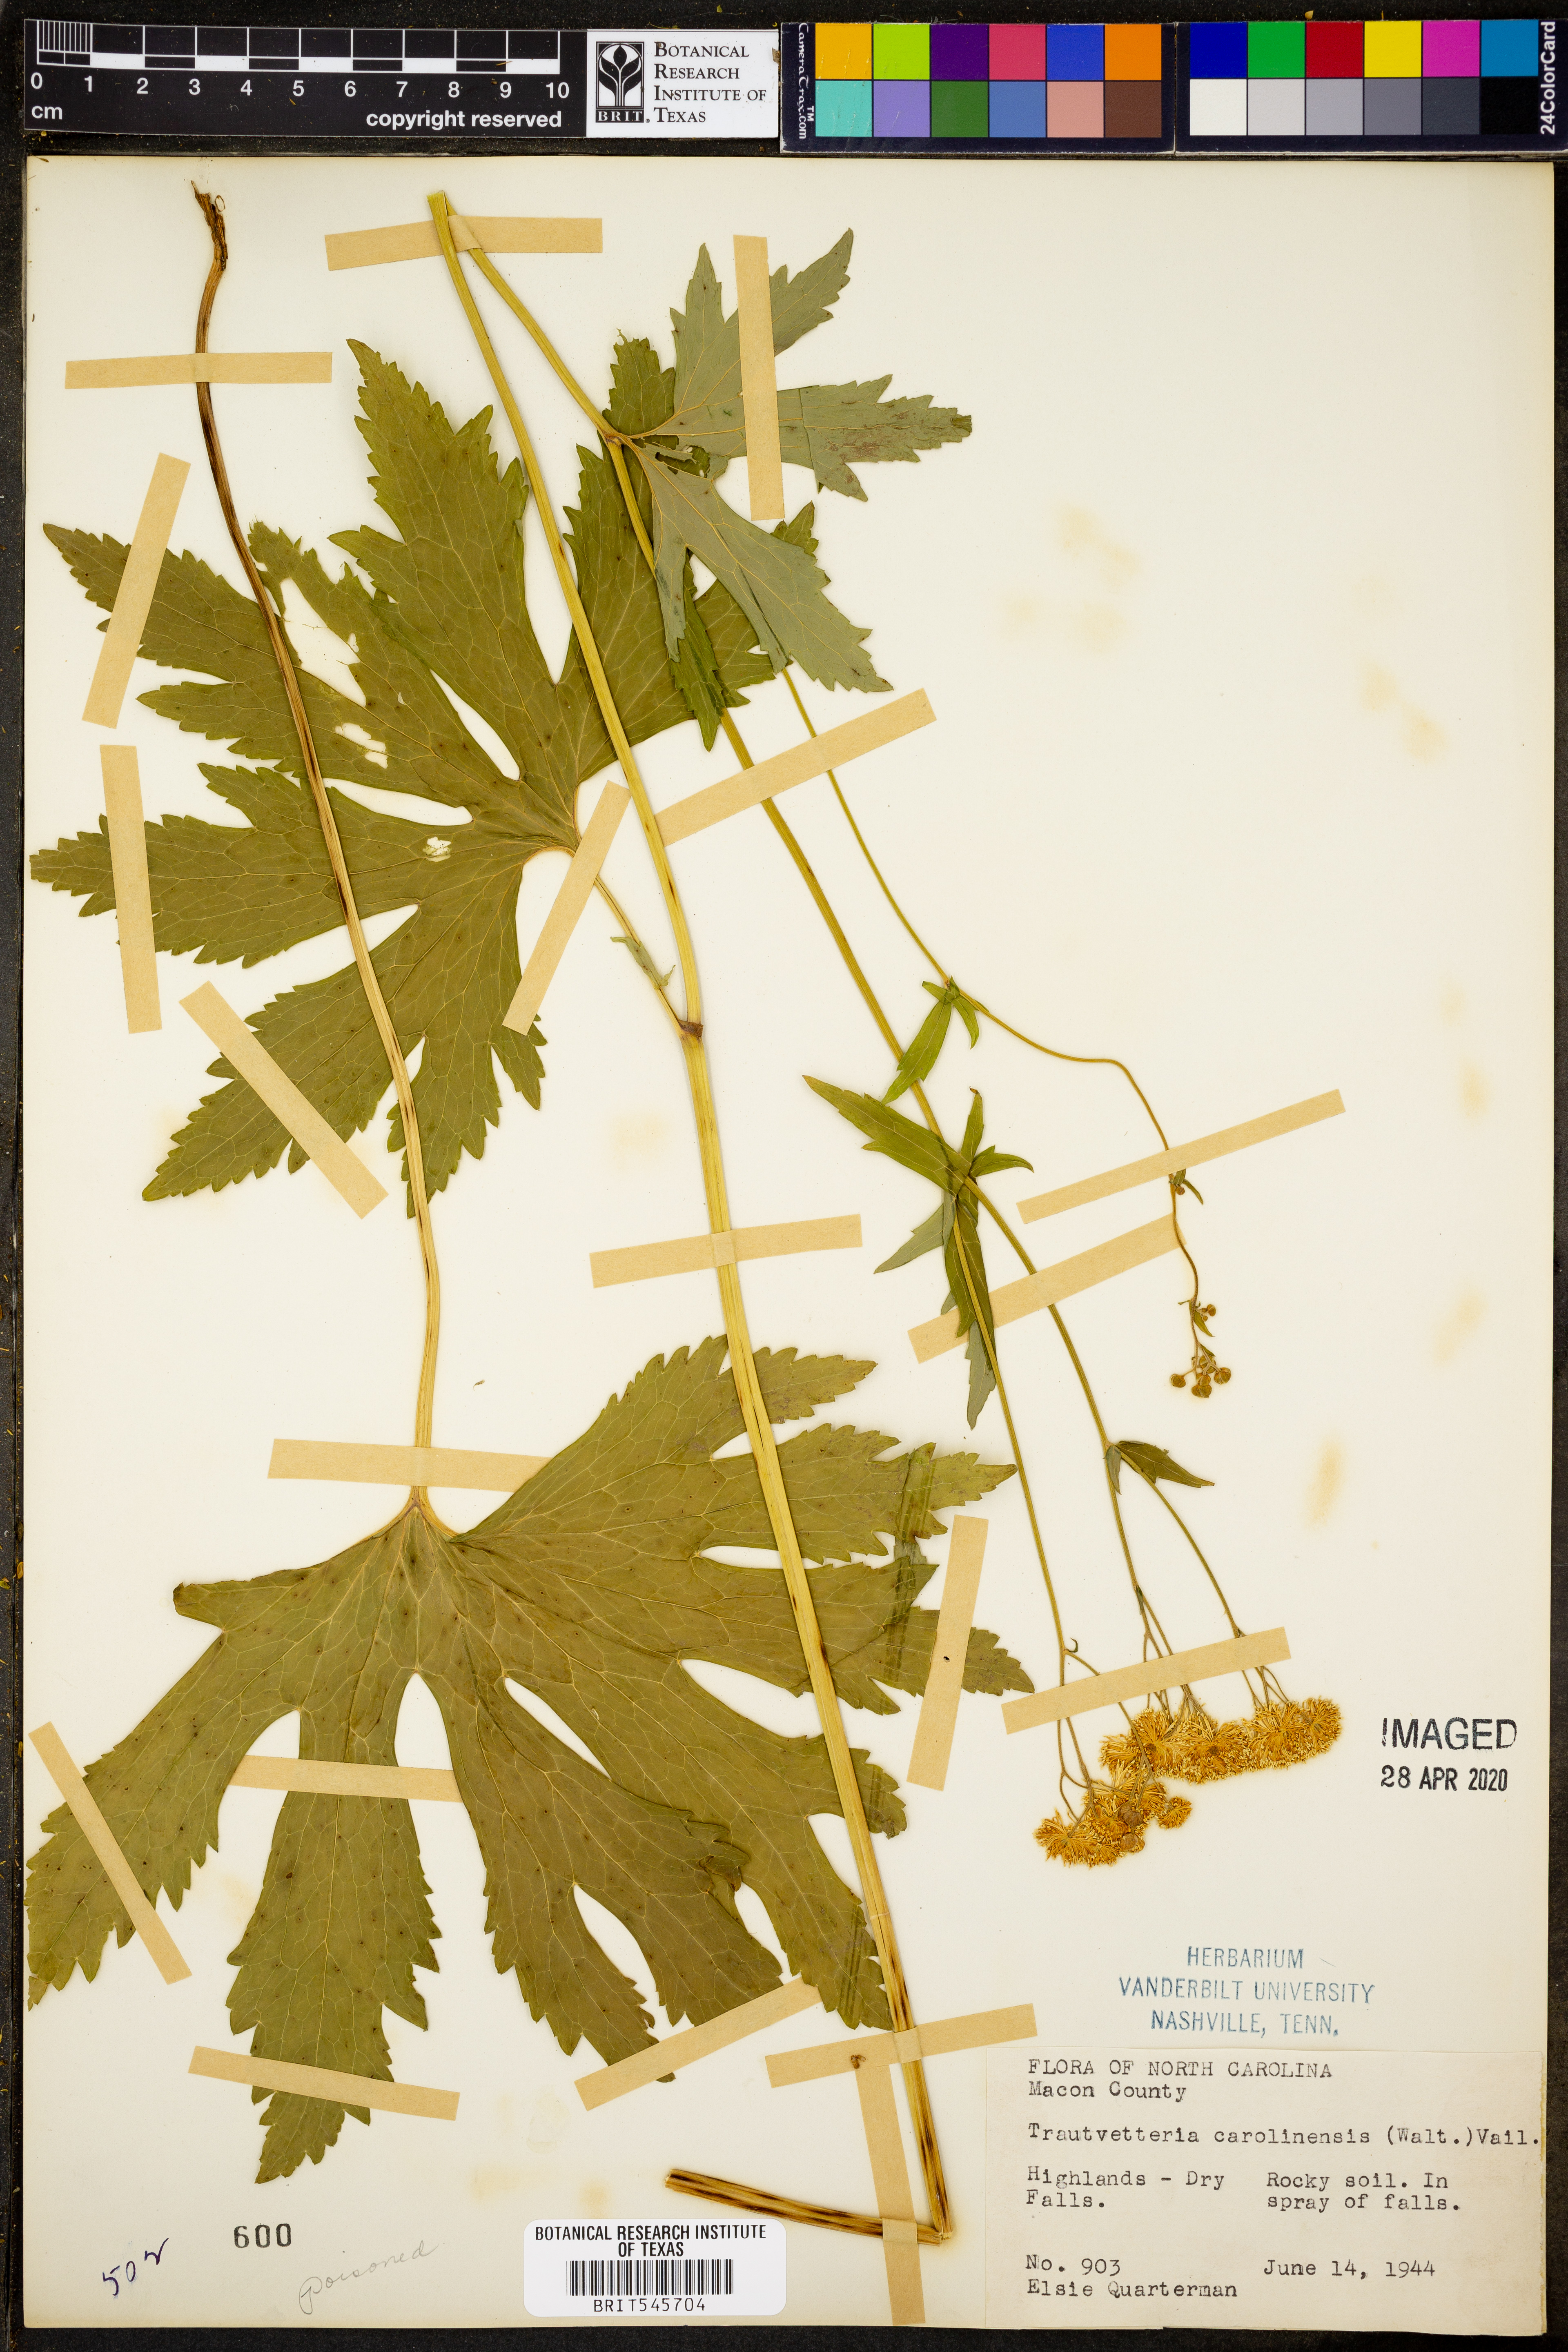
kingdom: Plantae
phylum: Tracheophyta
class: Magnoliopsida
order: Ranunculales
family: Ranunculaceae
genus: Trautvetteria
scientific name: Trautvetteria carolinensis
